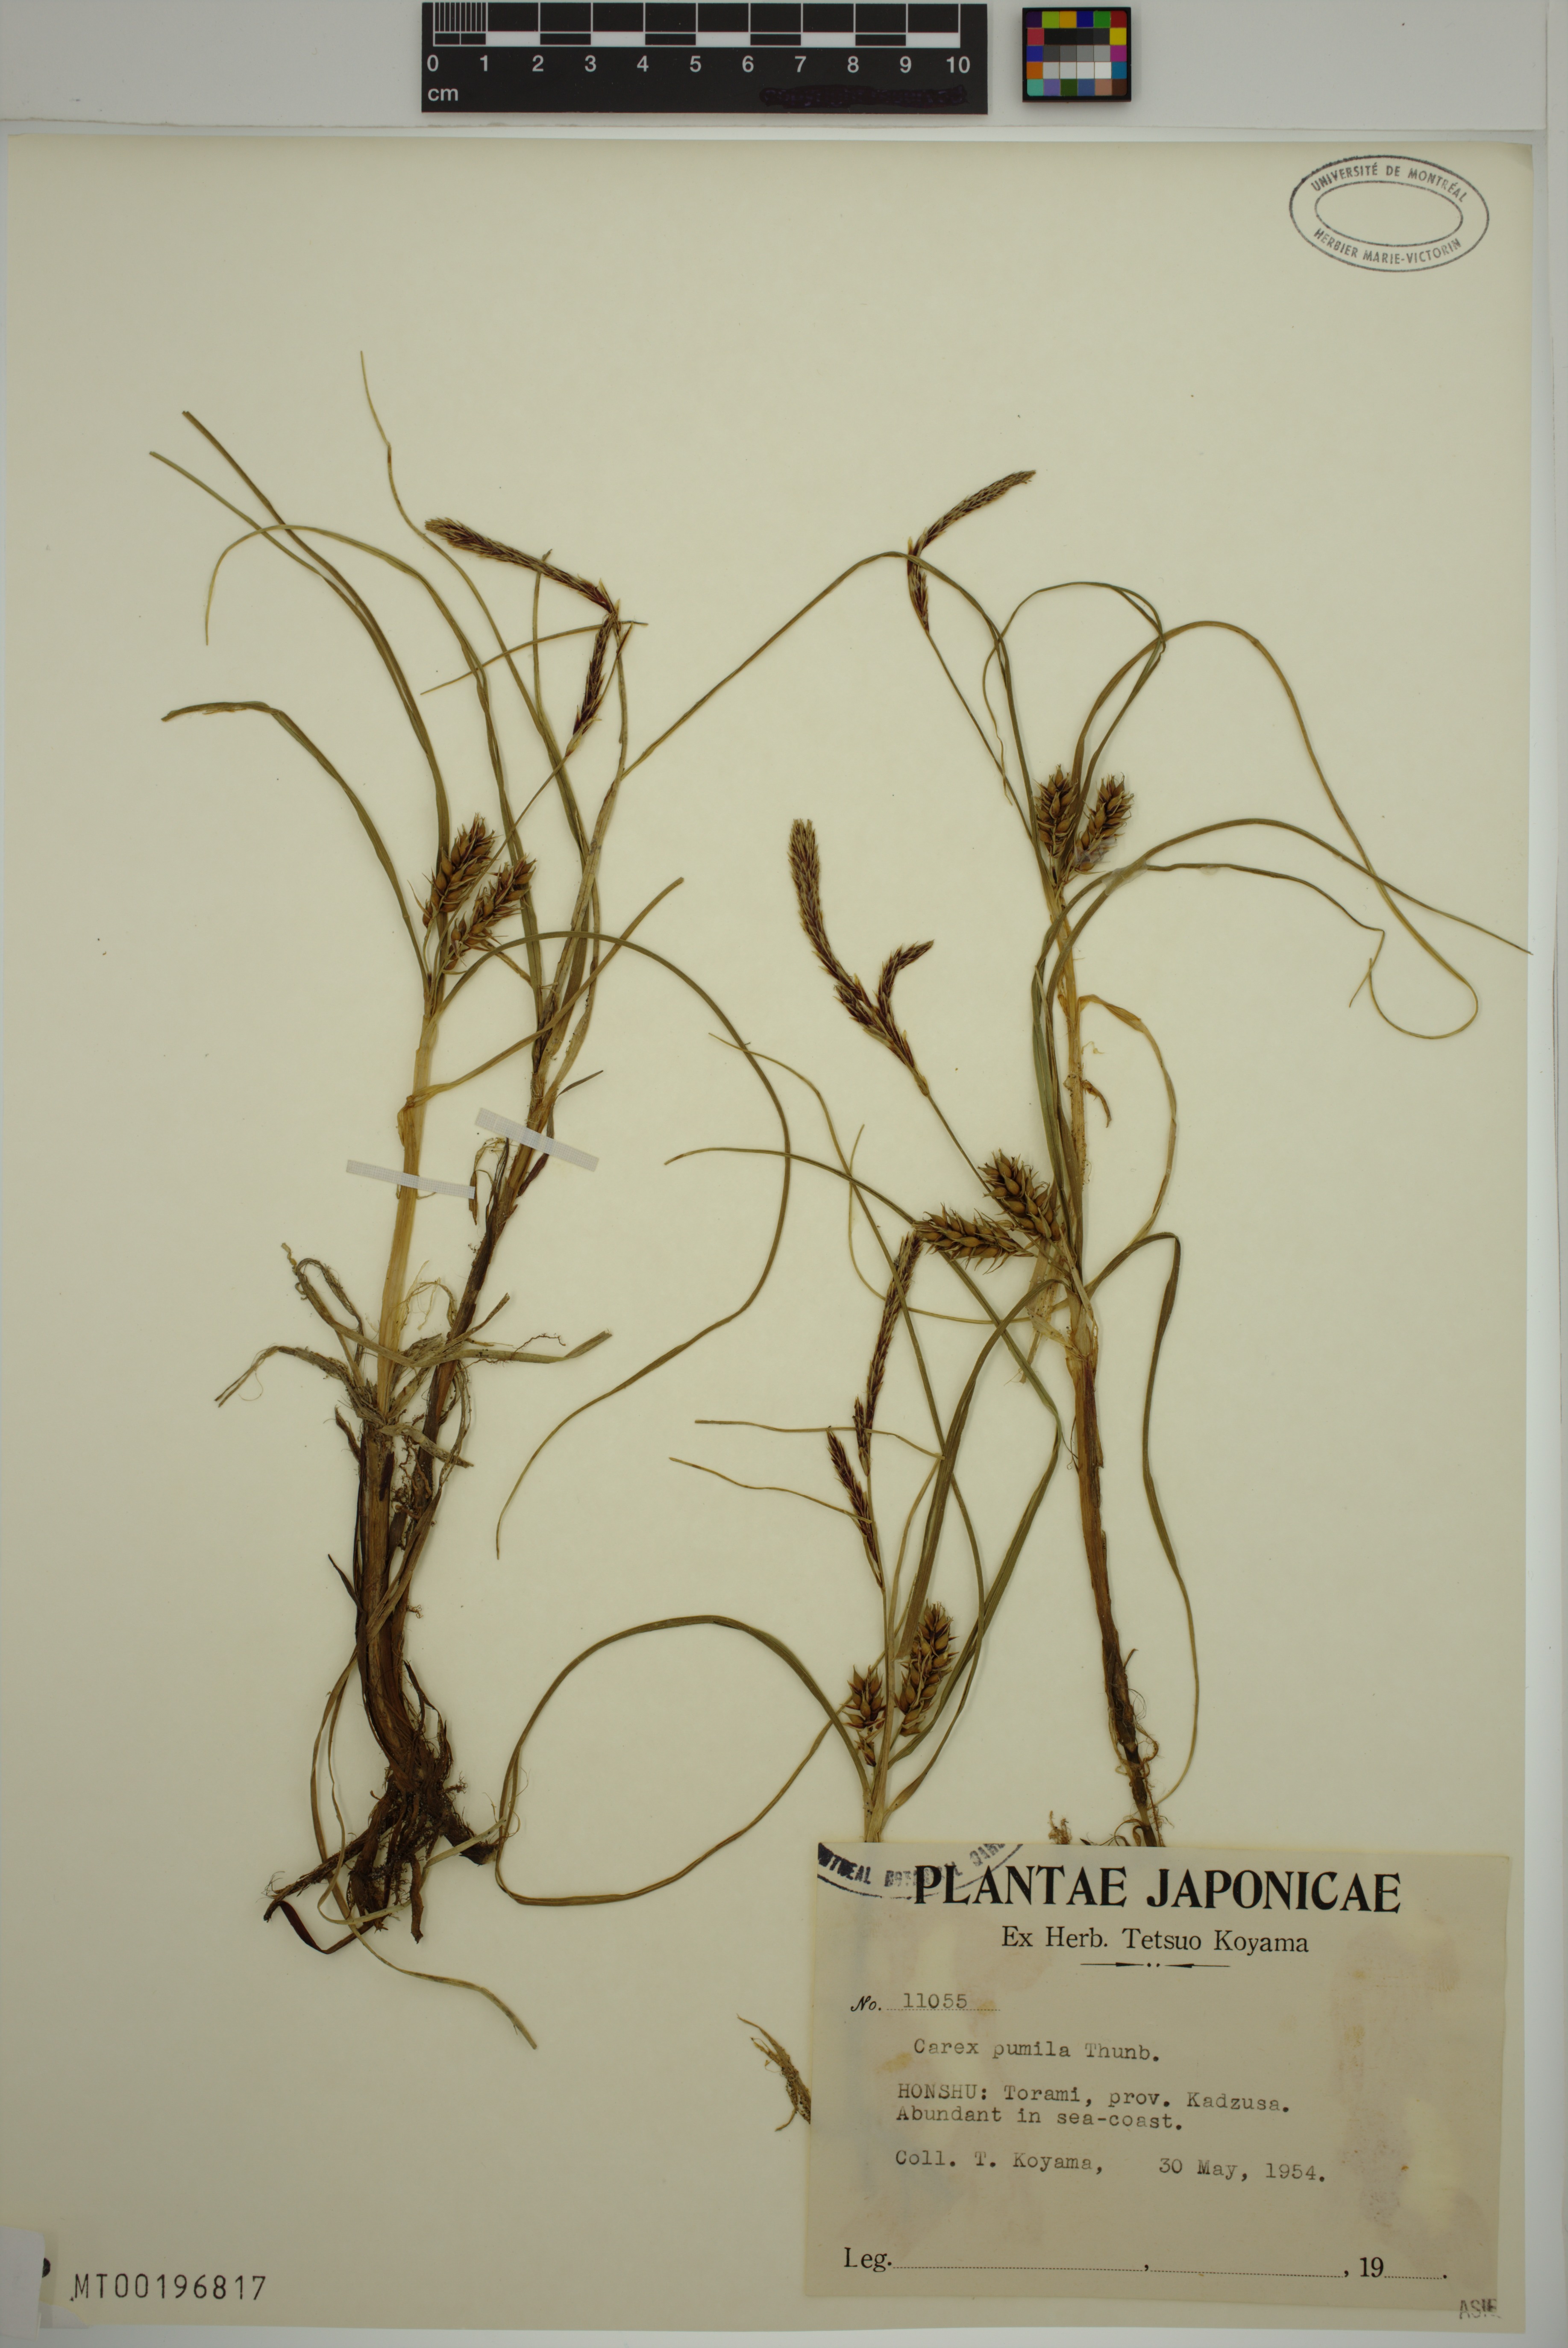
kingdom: Plantae
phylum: Tracheophyta
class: Liliopsida
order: Poales
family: Cyperaceae
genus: Carex
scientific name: Carex pumila
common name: Dwarf sedge
